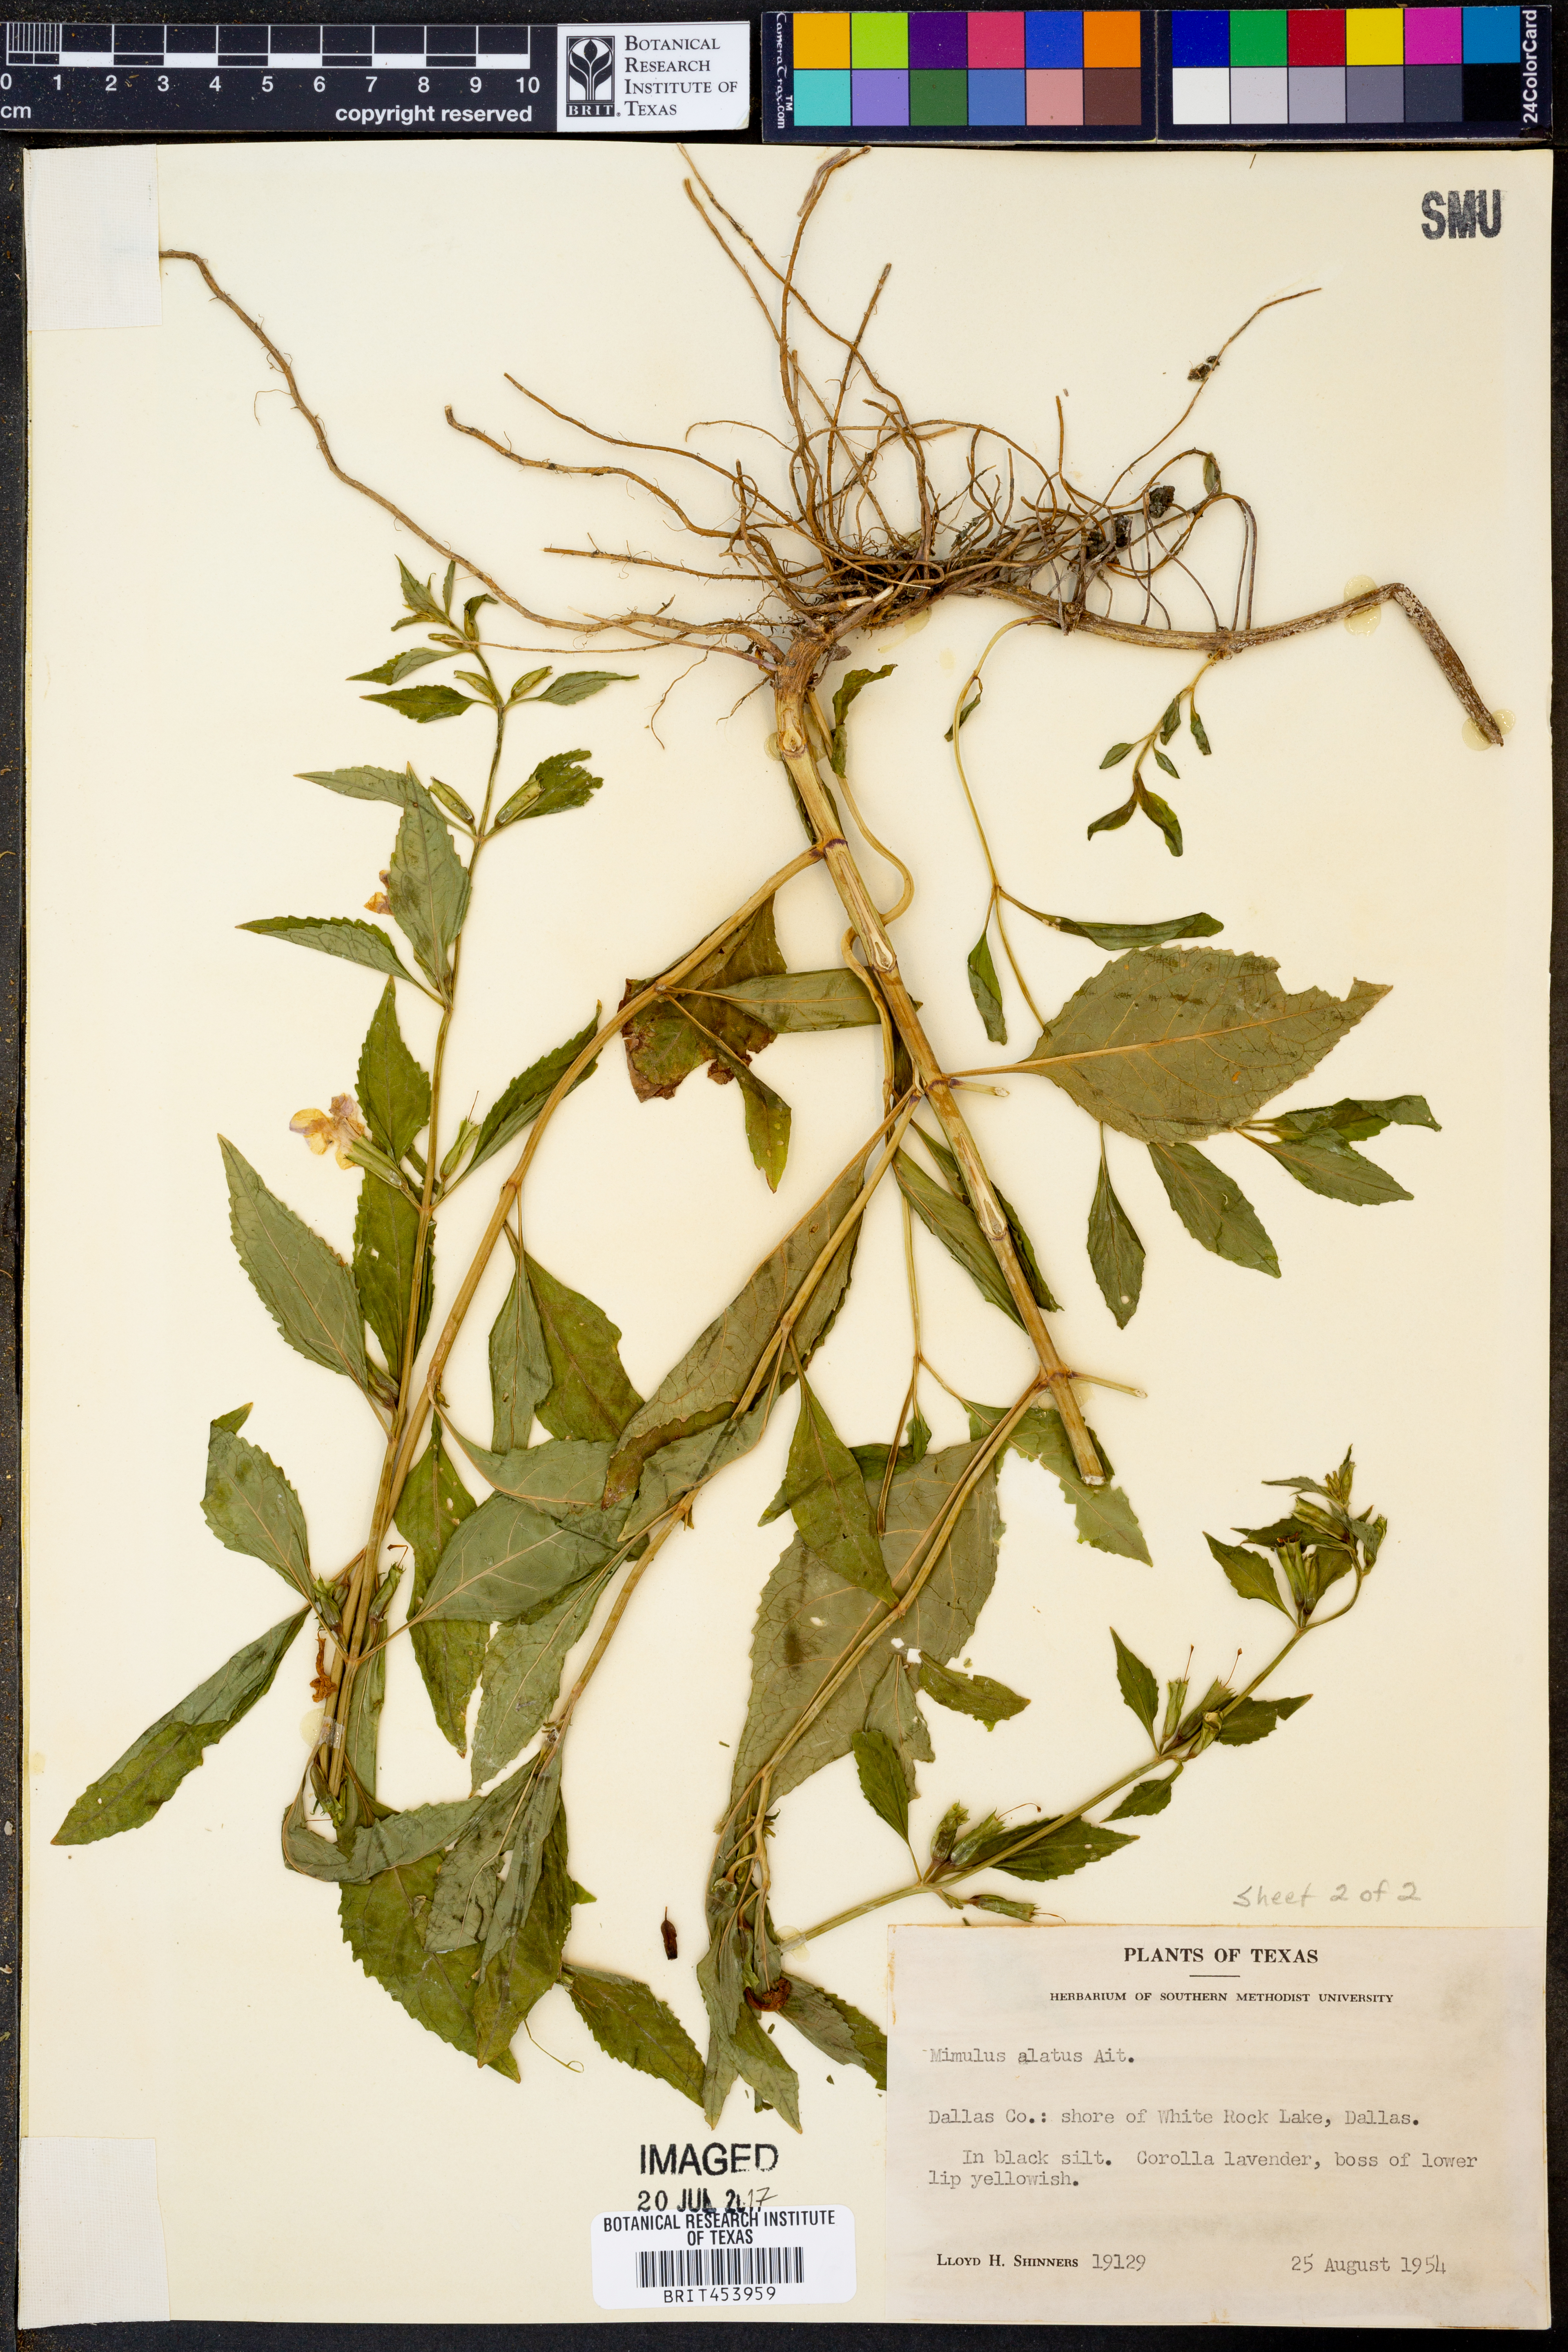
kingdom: Plantae
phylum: Tracheophyta
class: Magnoliopsida
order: Lamiales
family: Phrymaceae
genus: Mimulus
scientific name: Mimulus alatus
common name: Sharp-wing monkey-flower
